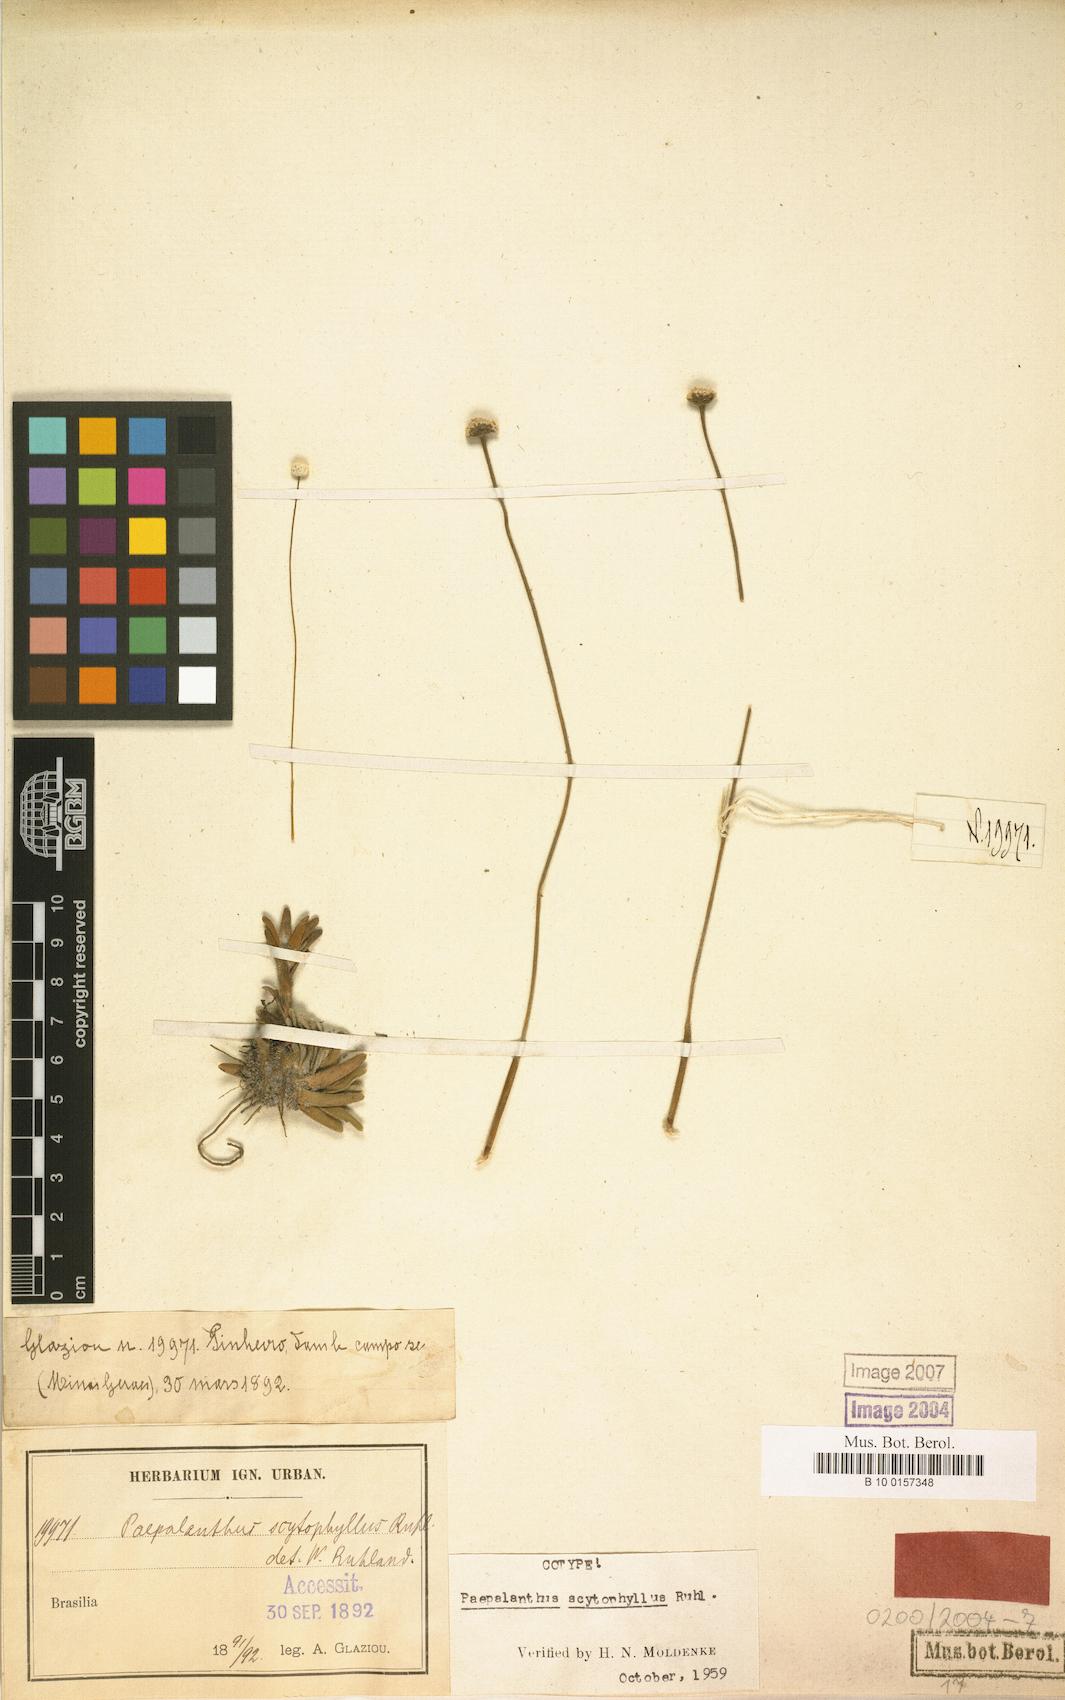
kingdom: Plantae
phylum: Tracheophyta
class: Liliopsida
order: Poales
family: Eriocaulaceae
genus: Paepalanthus
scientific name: Paepalanthus scytophyllus
